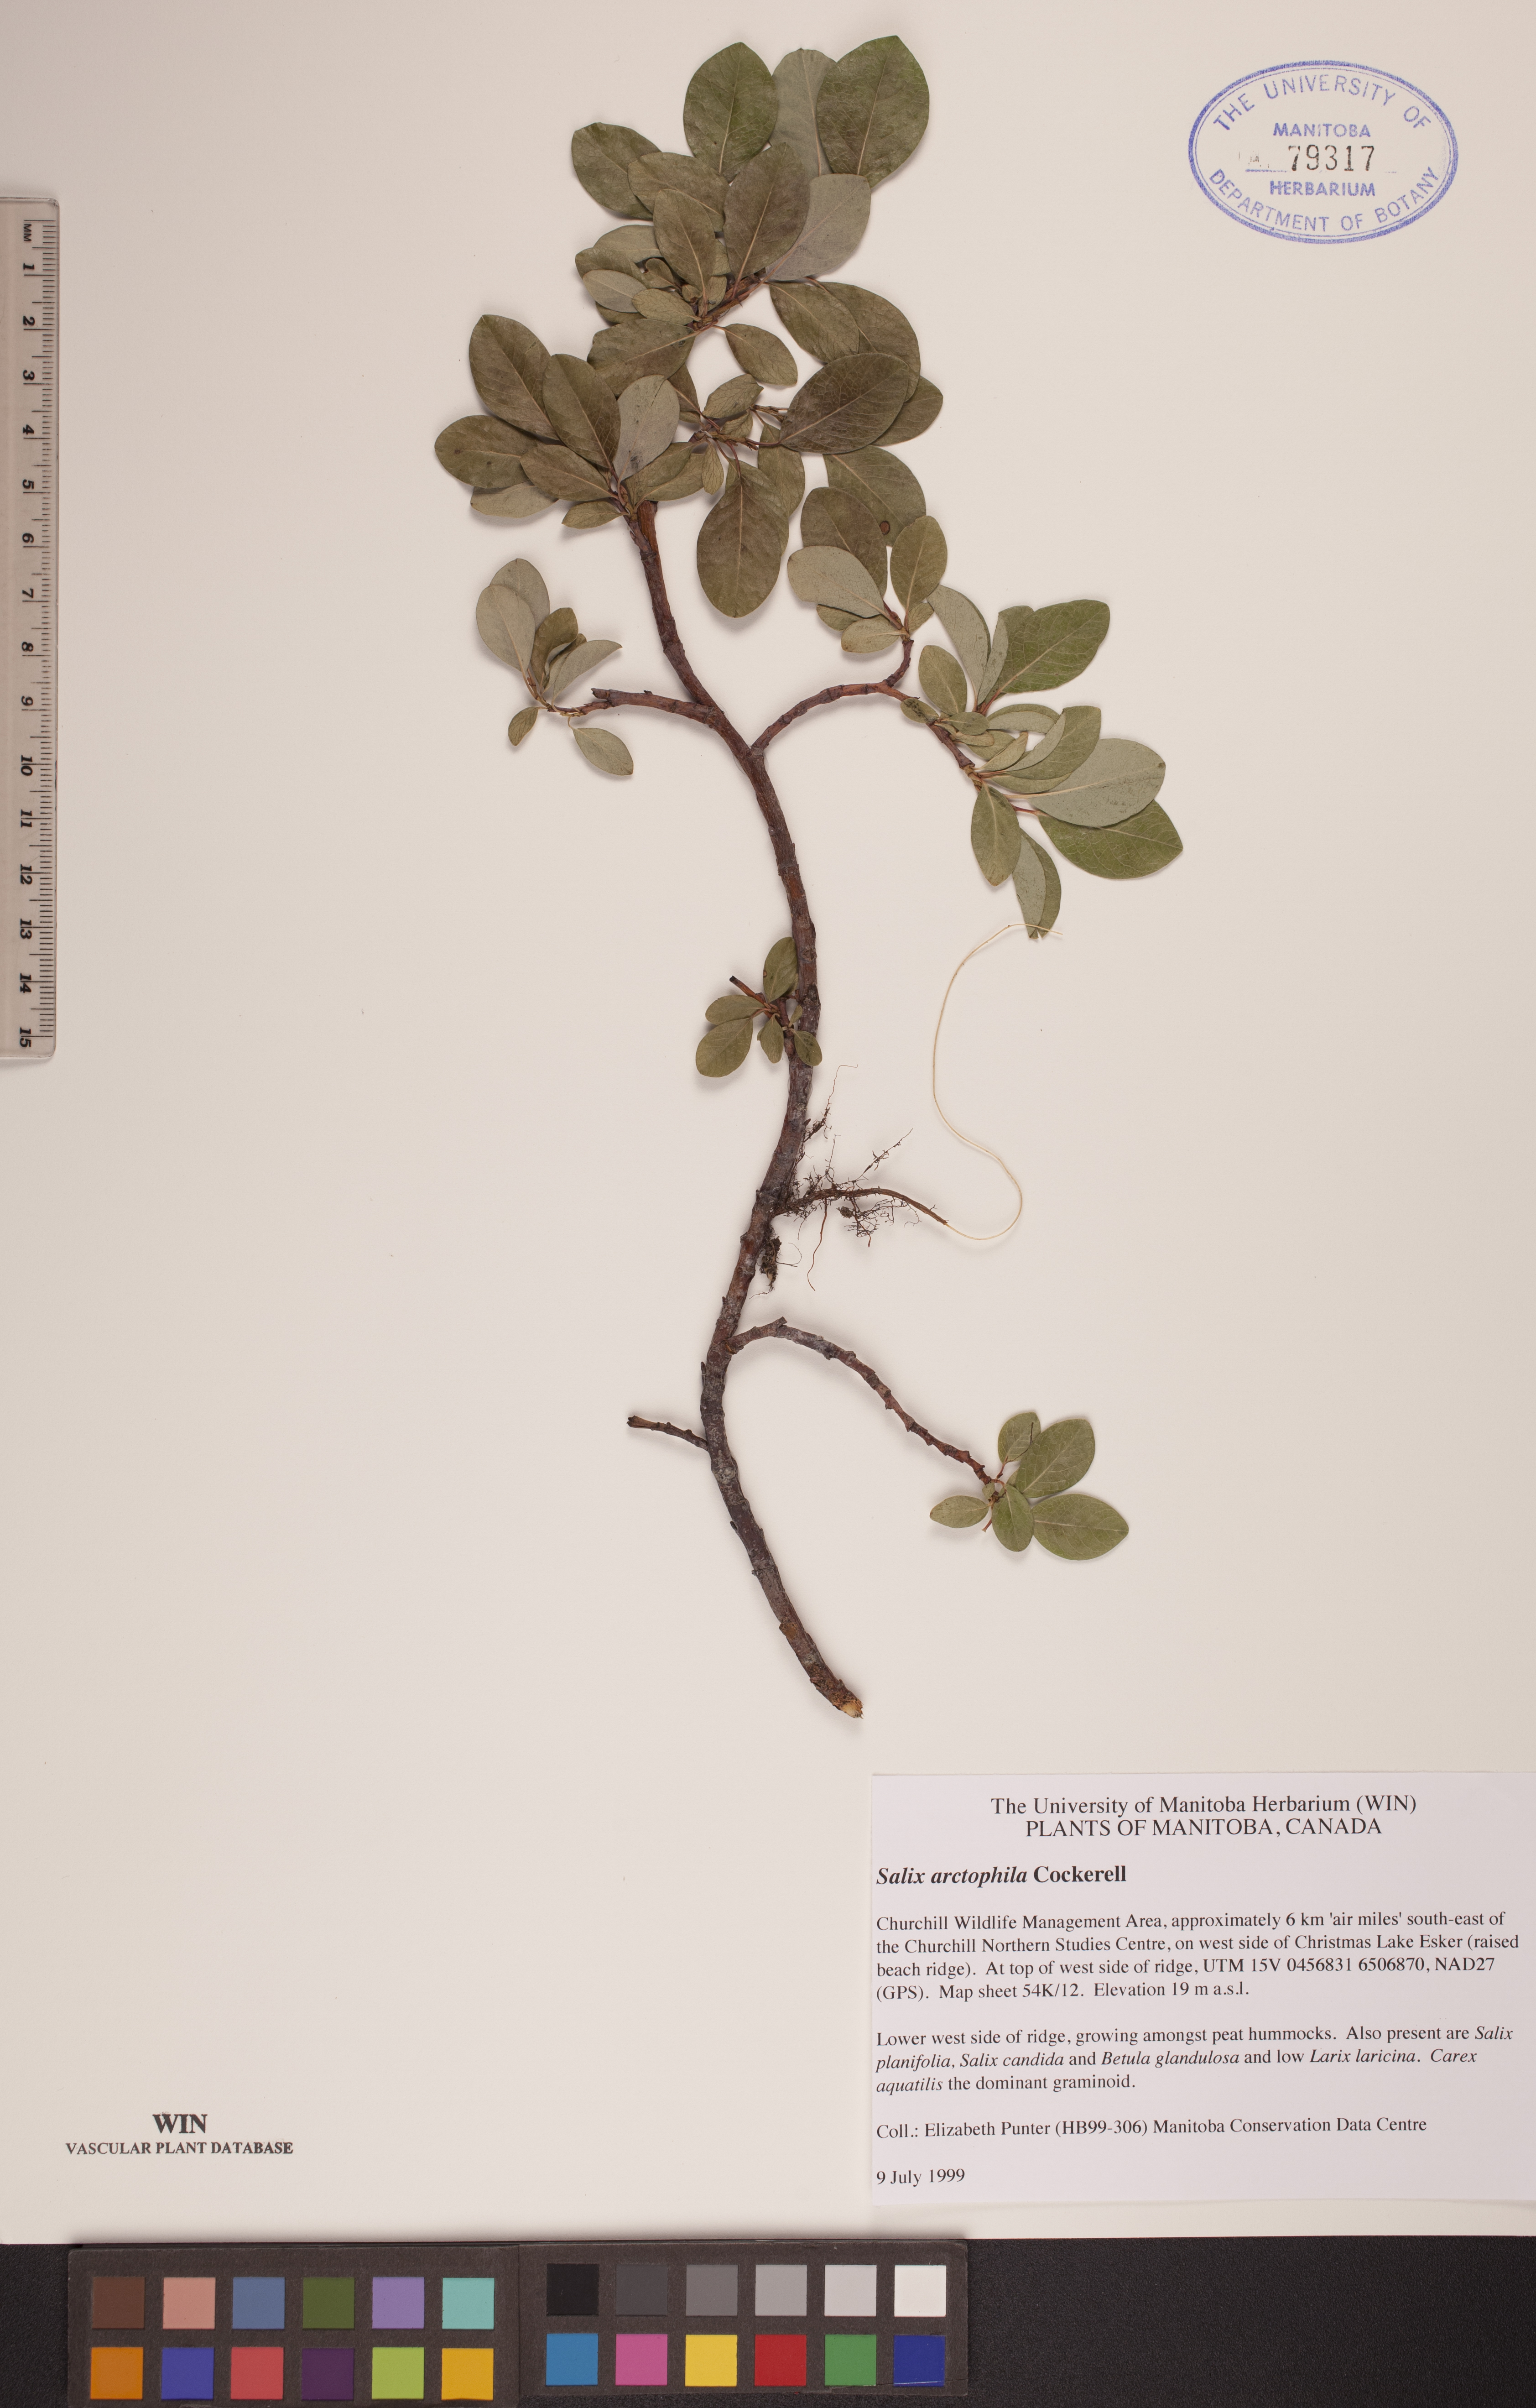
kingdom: Plantae
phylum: Tracheophyta
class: Magnoliopsida
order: Malpighiales
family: Salicaceae
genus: Salix
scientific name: Salix arctophila
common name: Greenland willow
